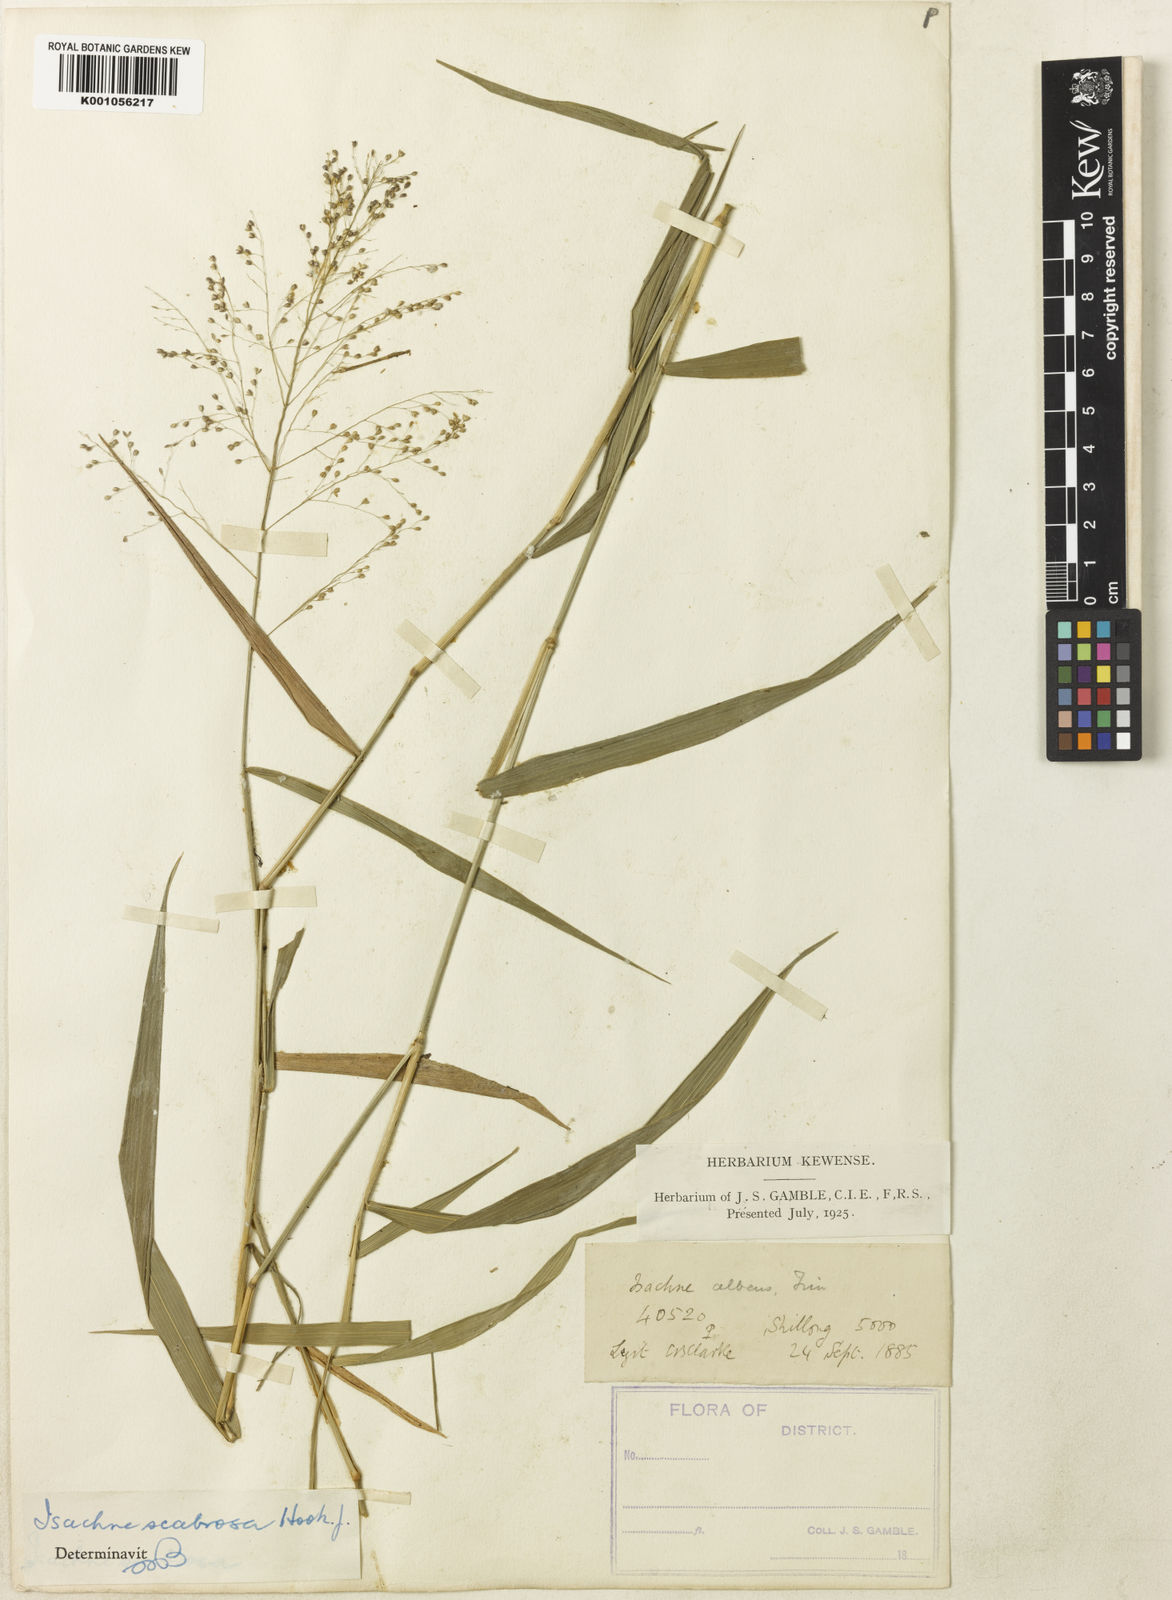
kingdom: Plantae
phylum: Tracheophyta
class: Liliopsida
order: Poales
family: Poaceae
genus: Isachne
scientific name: Isachne scabrosa
